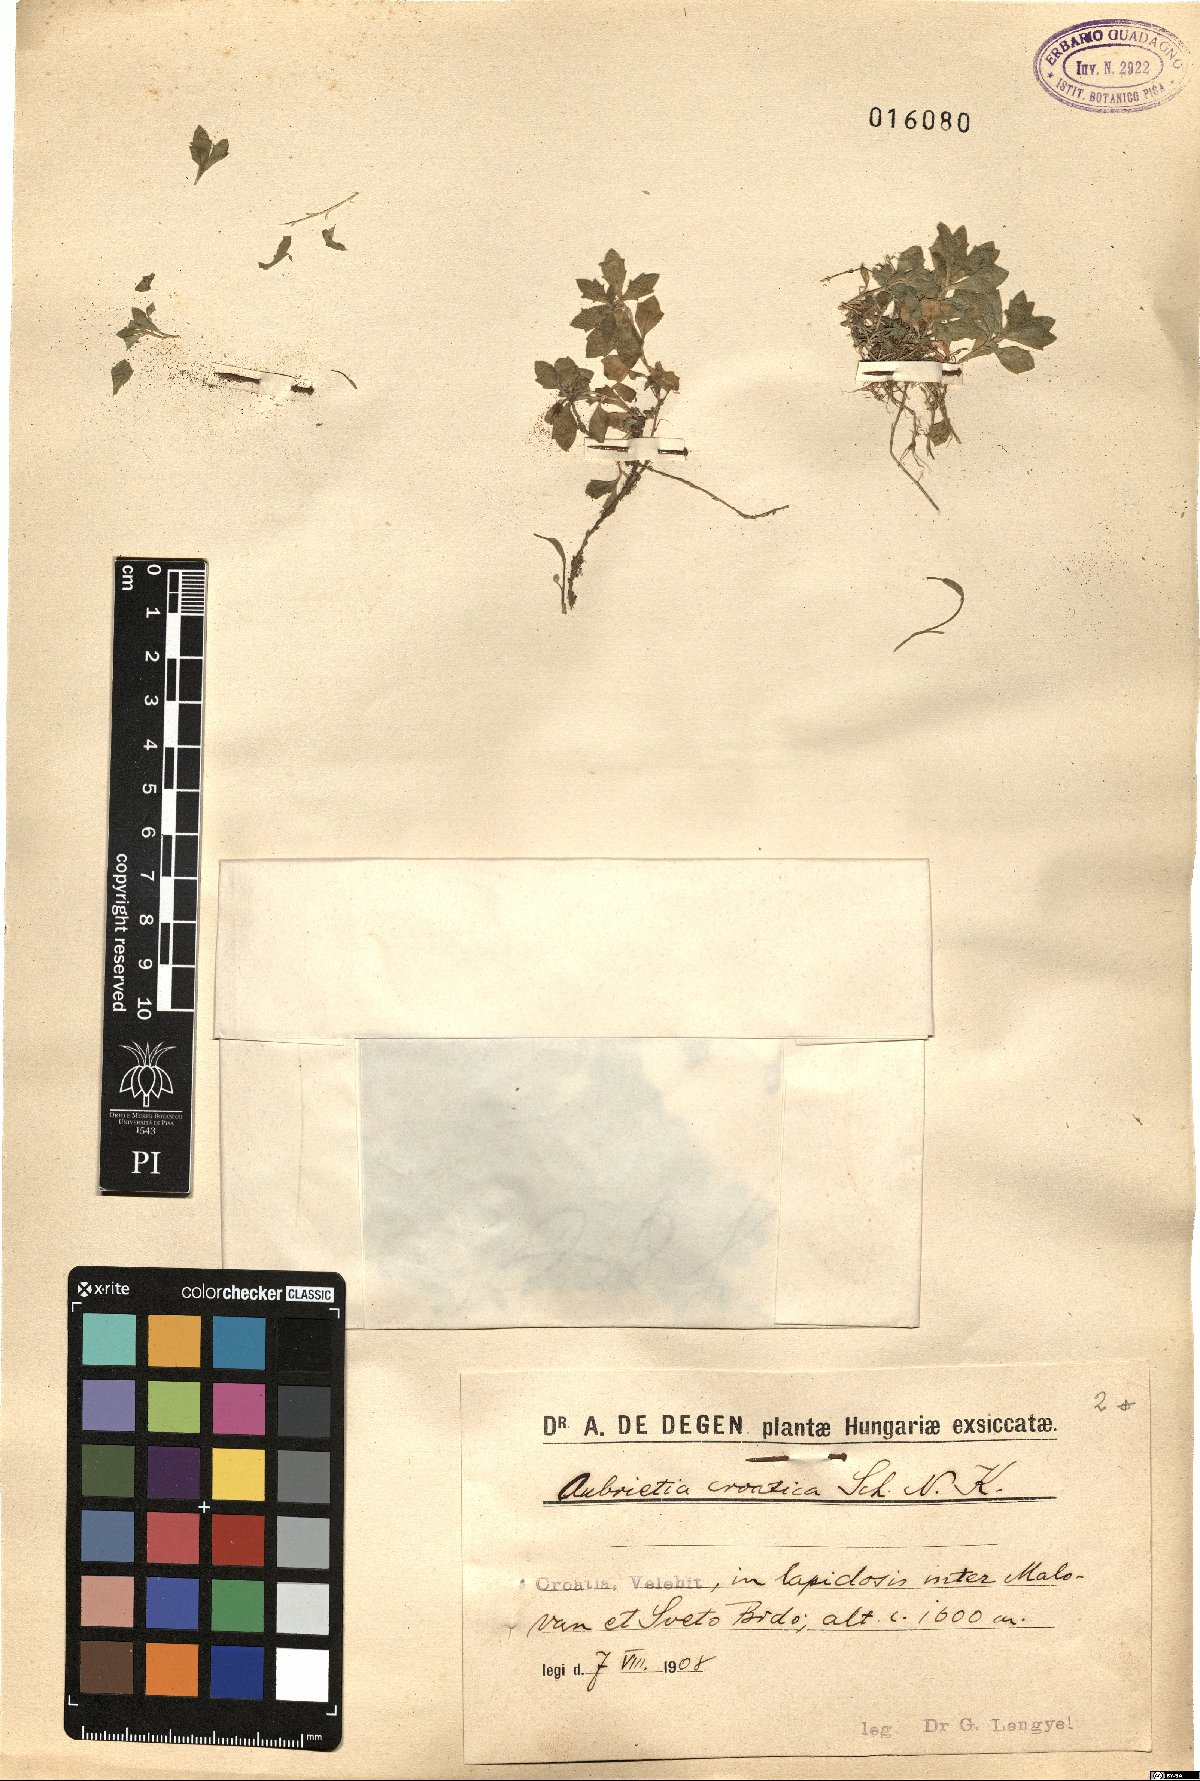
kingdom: Plantae
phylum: Tracheophyta
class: Magnoliopsida
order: Brassicales
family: Brassicaceae
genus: Aubrieta
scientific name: Aubrieta columnae
